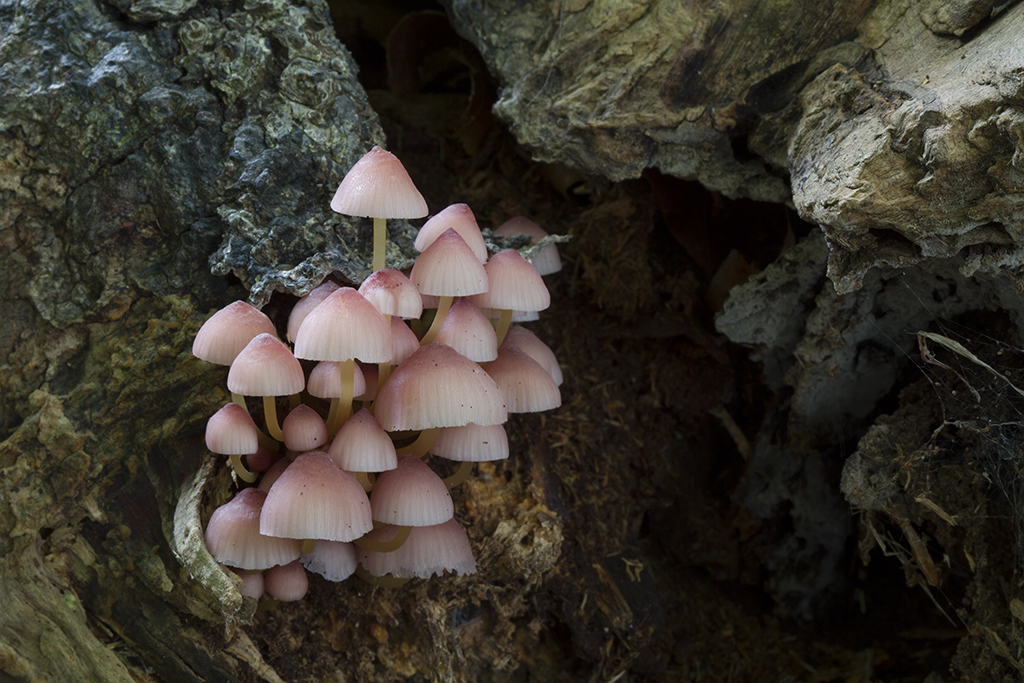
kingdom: Fungi
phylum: Basidiomycota
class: Agaricomycetes
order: Agaricales
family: Mycenaceae
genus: Mycena
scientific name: Mycena renati
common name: smuk huesvamp
